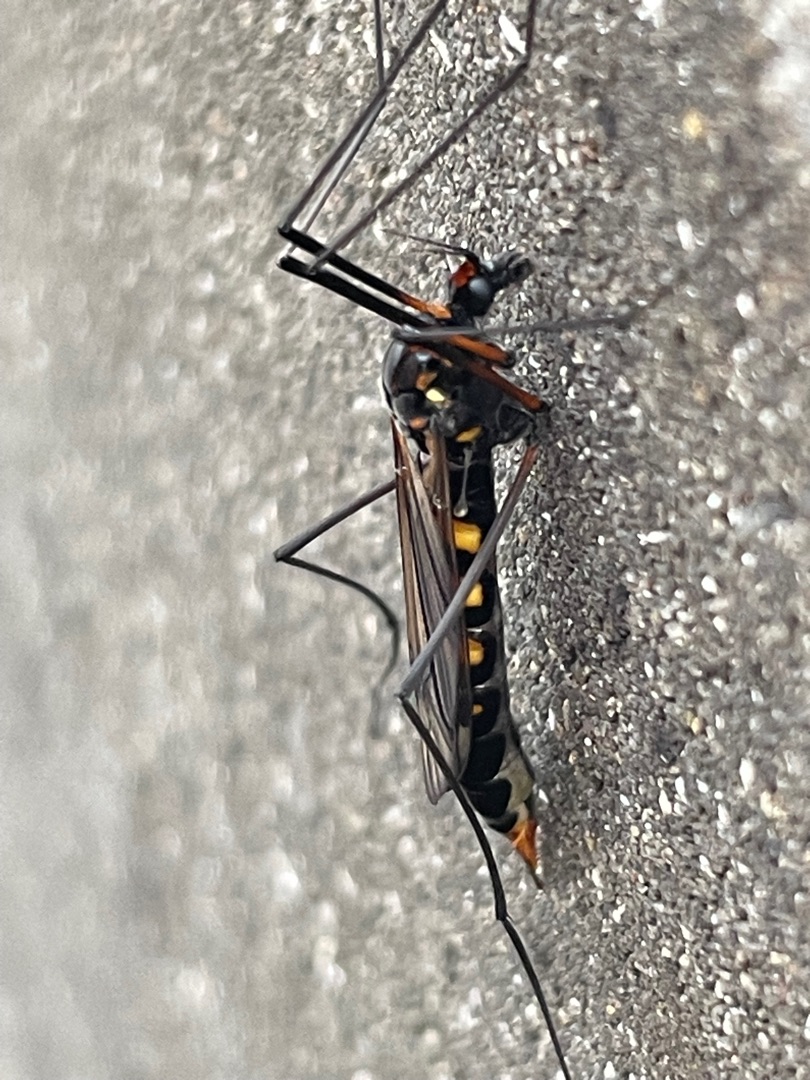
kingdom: Animalia
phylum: Arthropoda
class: Insecta
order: Diptera
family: Tipulidae
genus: Nephrotoma
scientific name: Nephrotoma crocata
